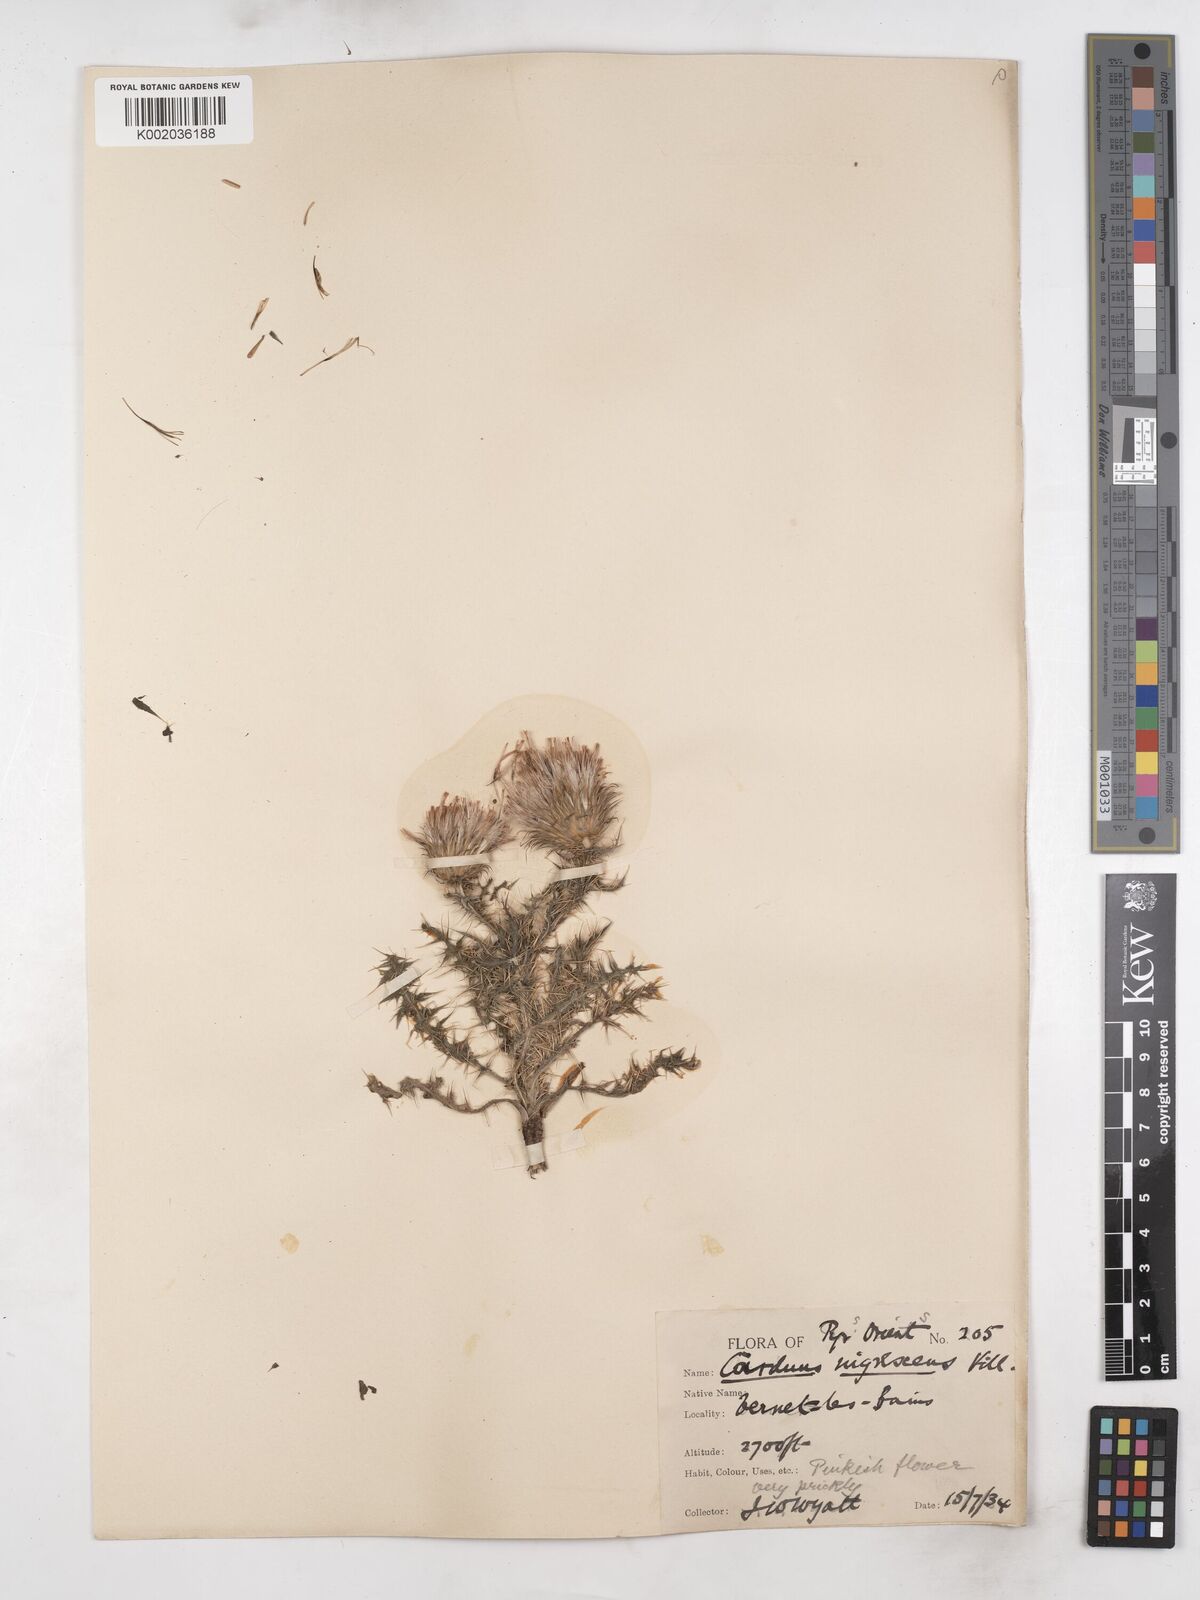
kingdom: Plantae
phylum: Tracheophyta
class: Magnoliopsida
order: Asterales
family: Asteraceae
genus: Carduus
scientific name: Carduus nigrescens
